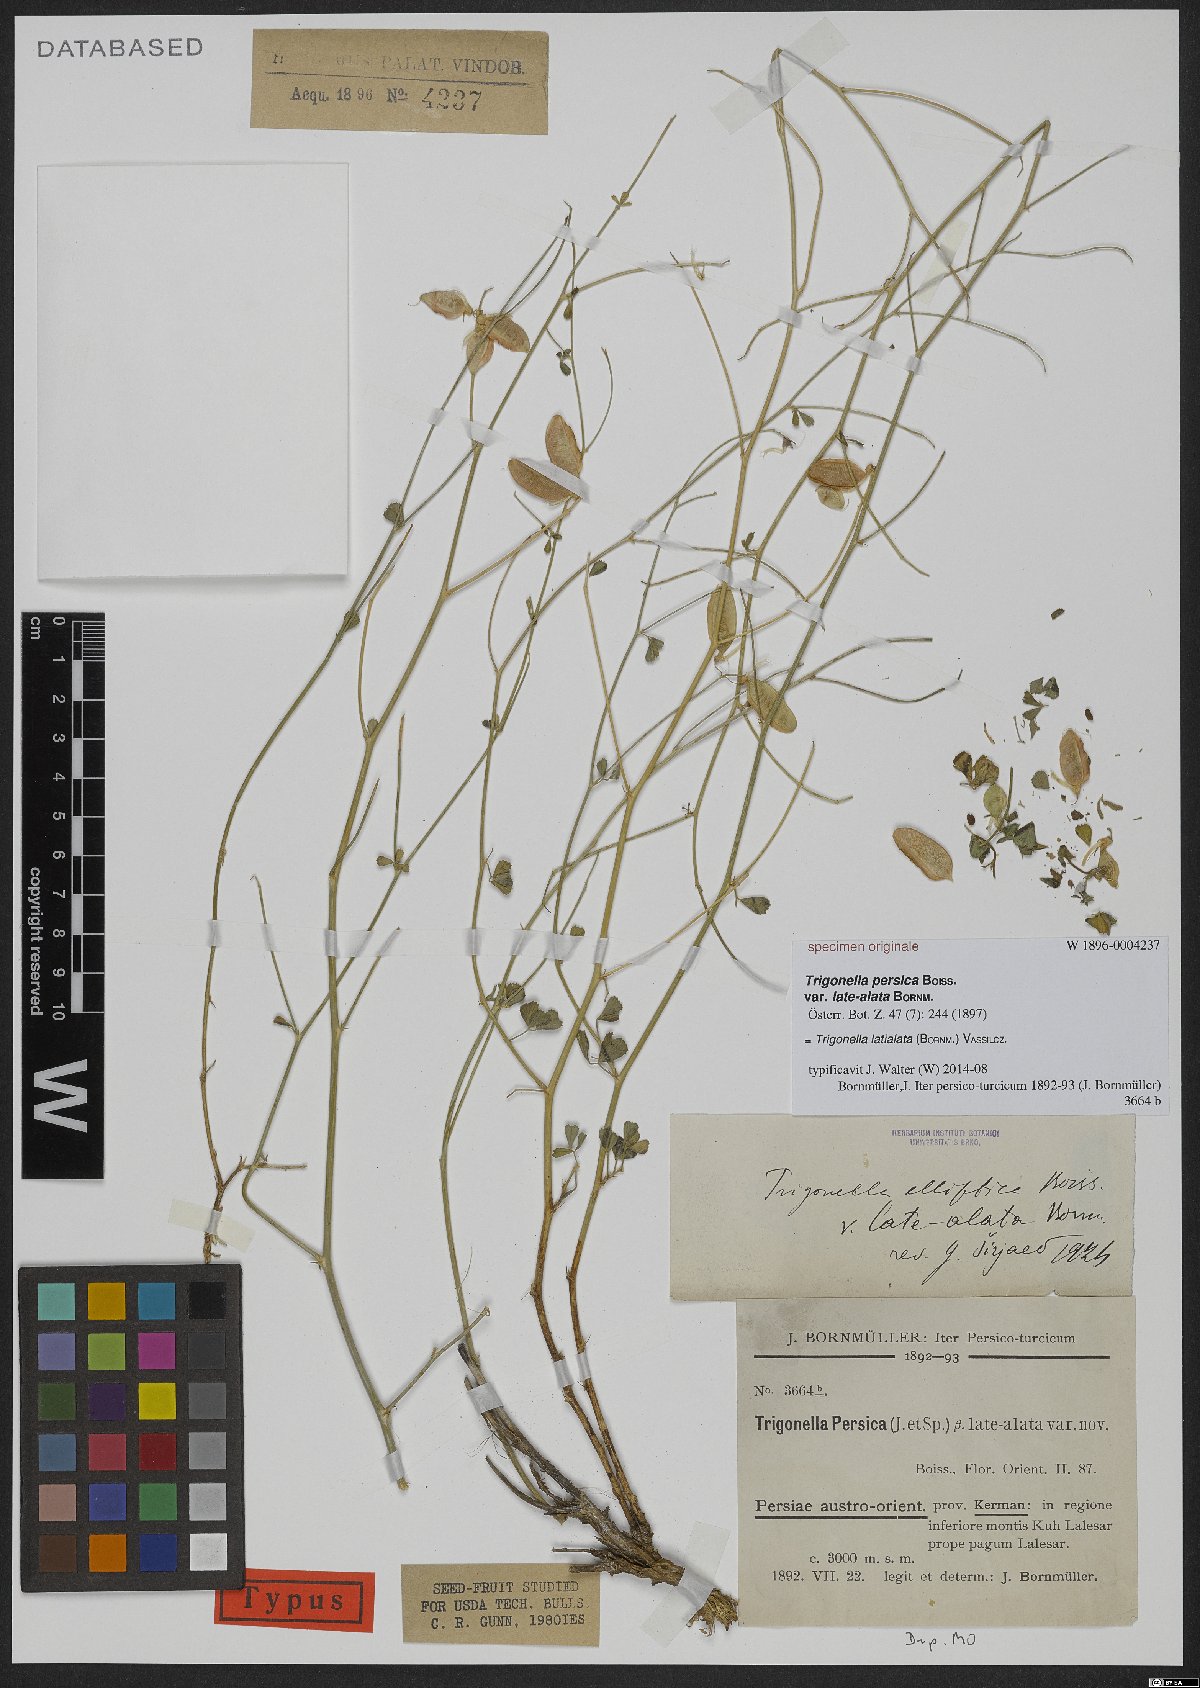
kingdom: Plantae
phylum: Tracheophyta
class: Magnoliopsida
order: Fabales
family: Fabaceae
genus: Trigonella
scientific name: Trigonella latialata
